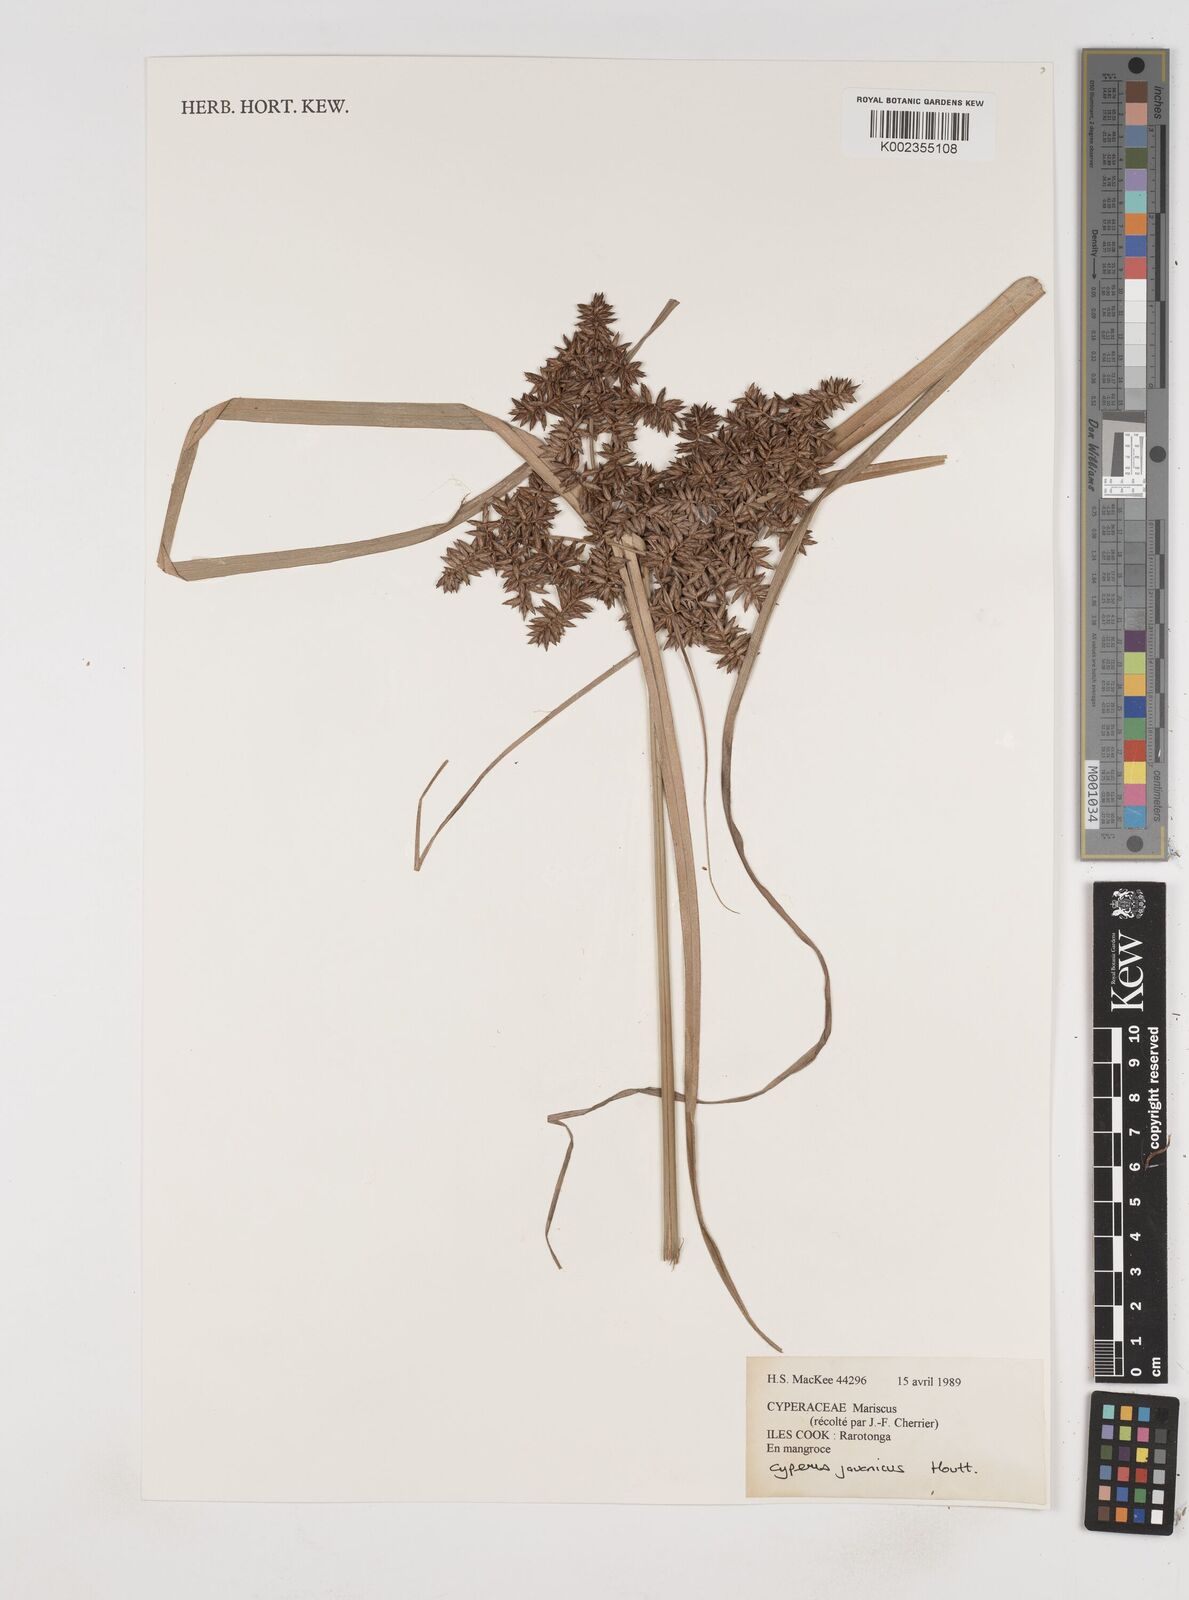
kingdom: Plantae
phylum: Tracheophyta
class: Liliopsida
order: Poales
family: Cyperaceae
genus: Cyperus
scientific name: Cyperus javanicus
